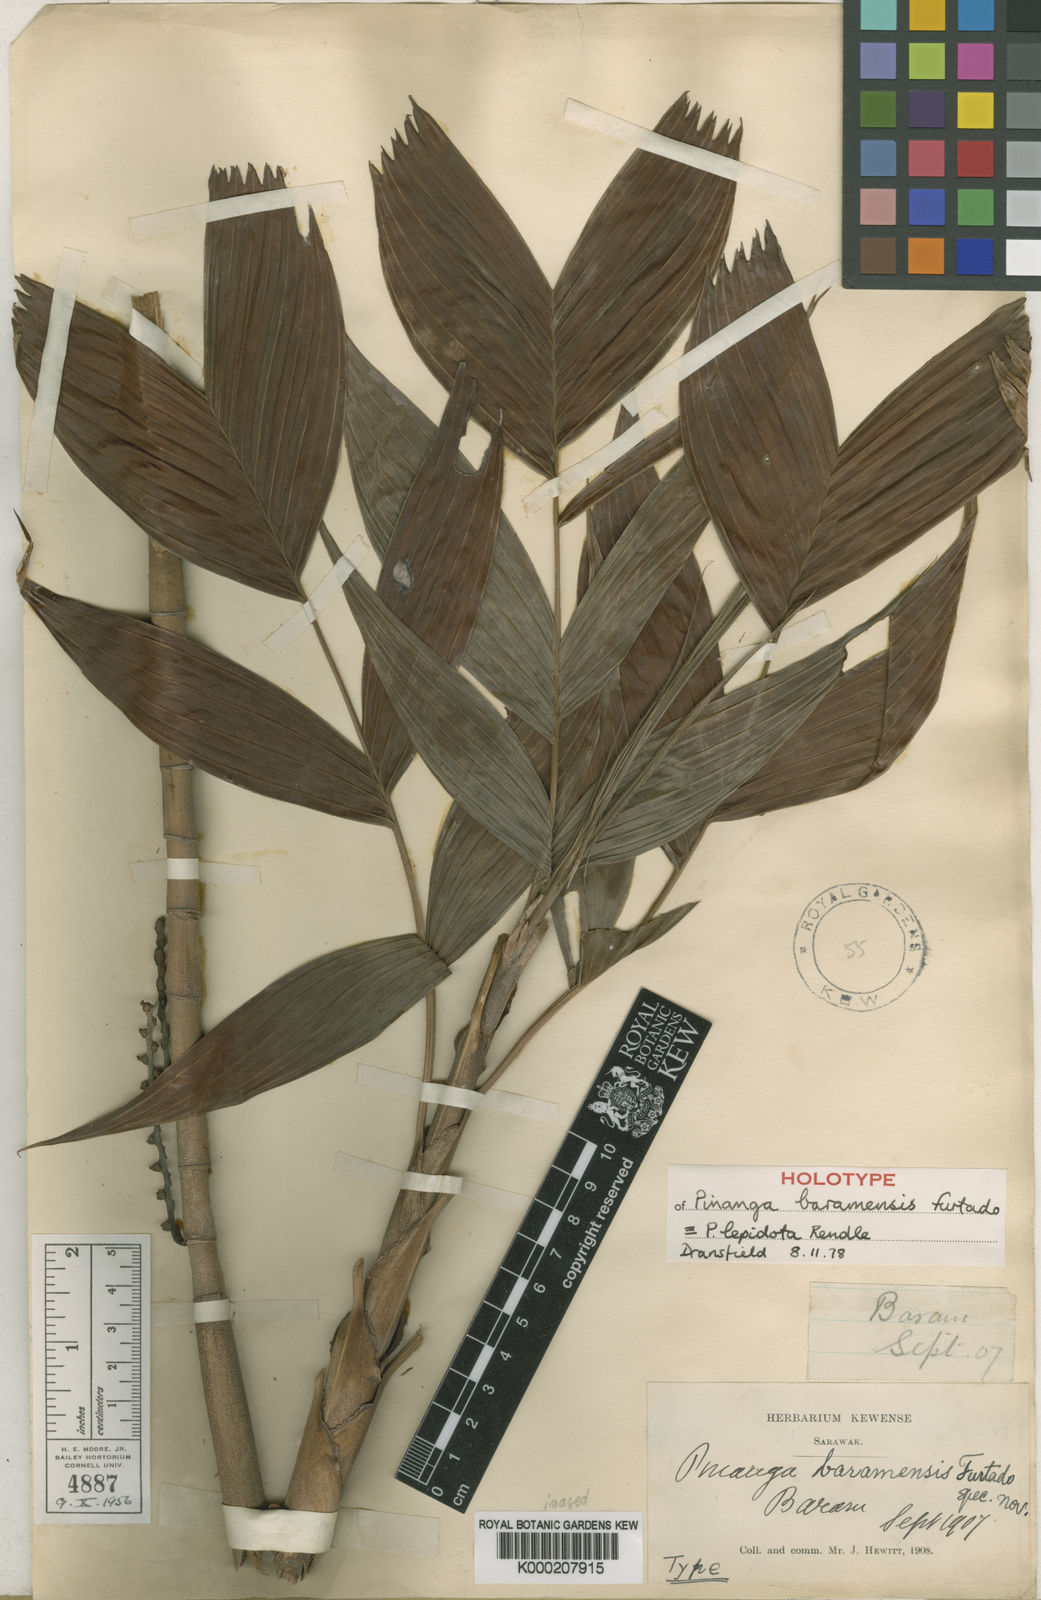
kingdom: Plantae
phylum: Tracheophyta
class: Liliopsida
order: Arecales
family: Arecaceae
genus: Pinanga
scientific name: Pinanga lepidota
